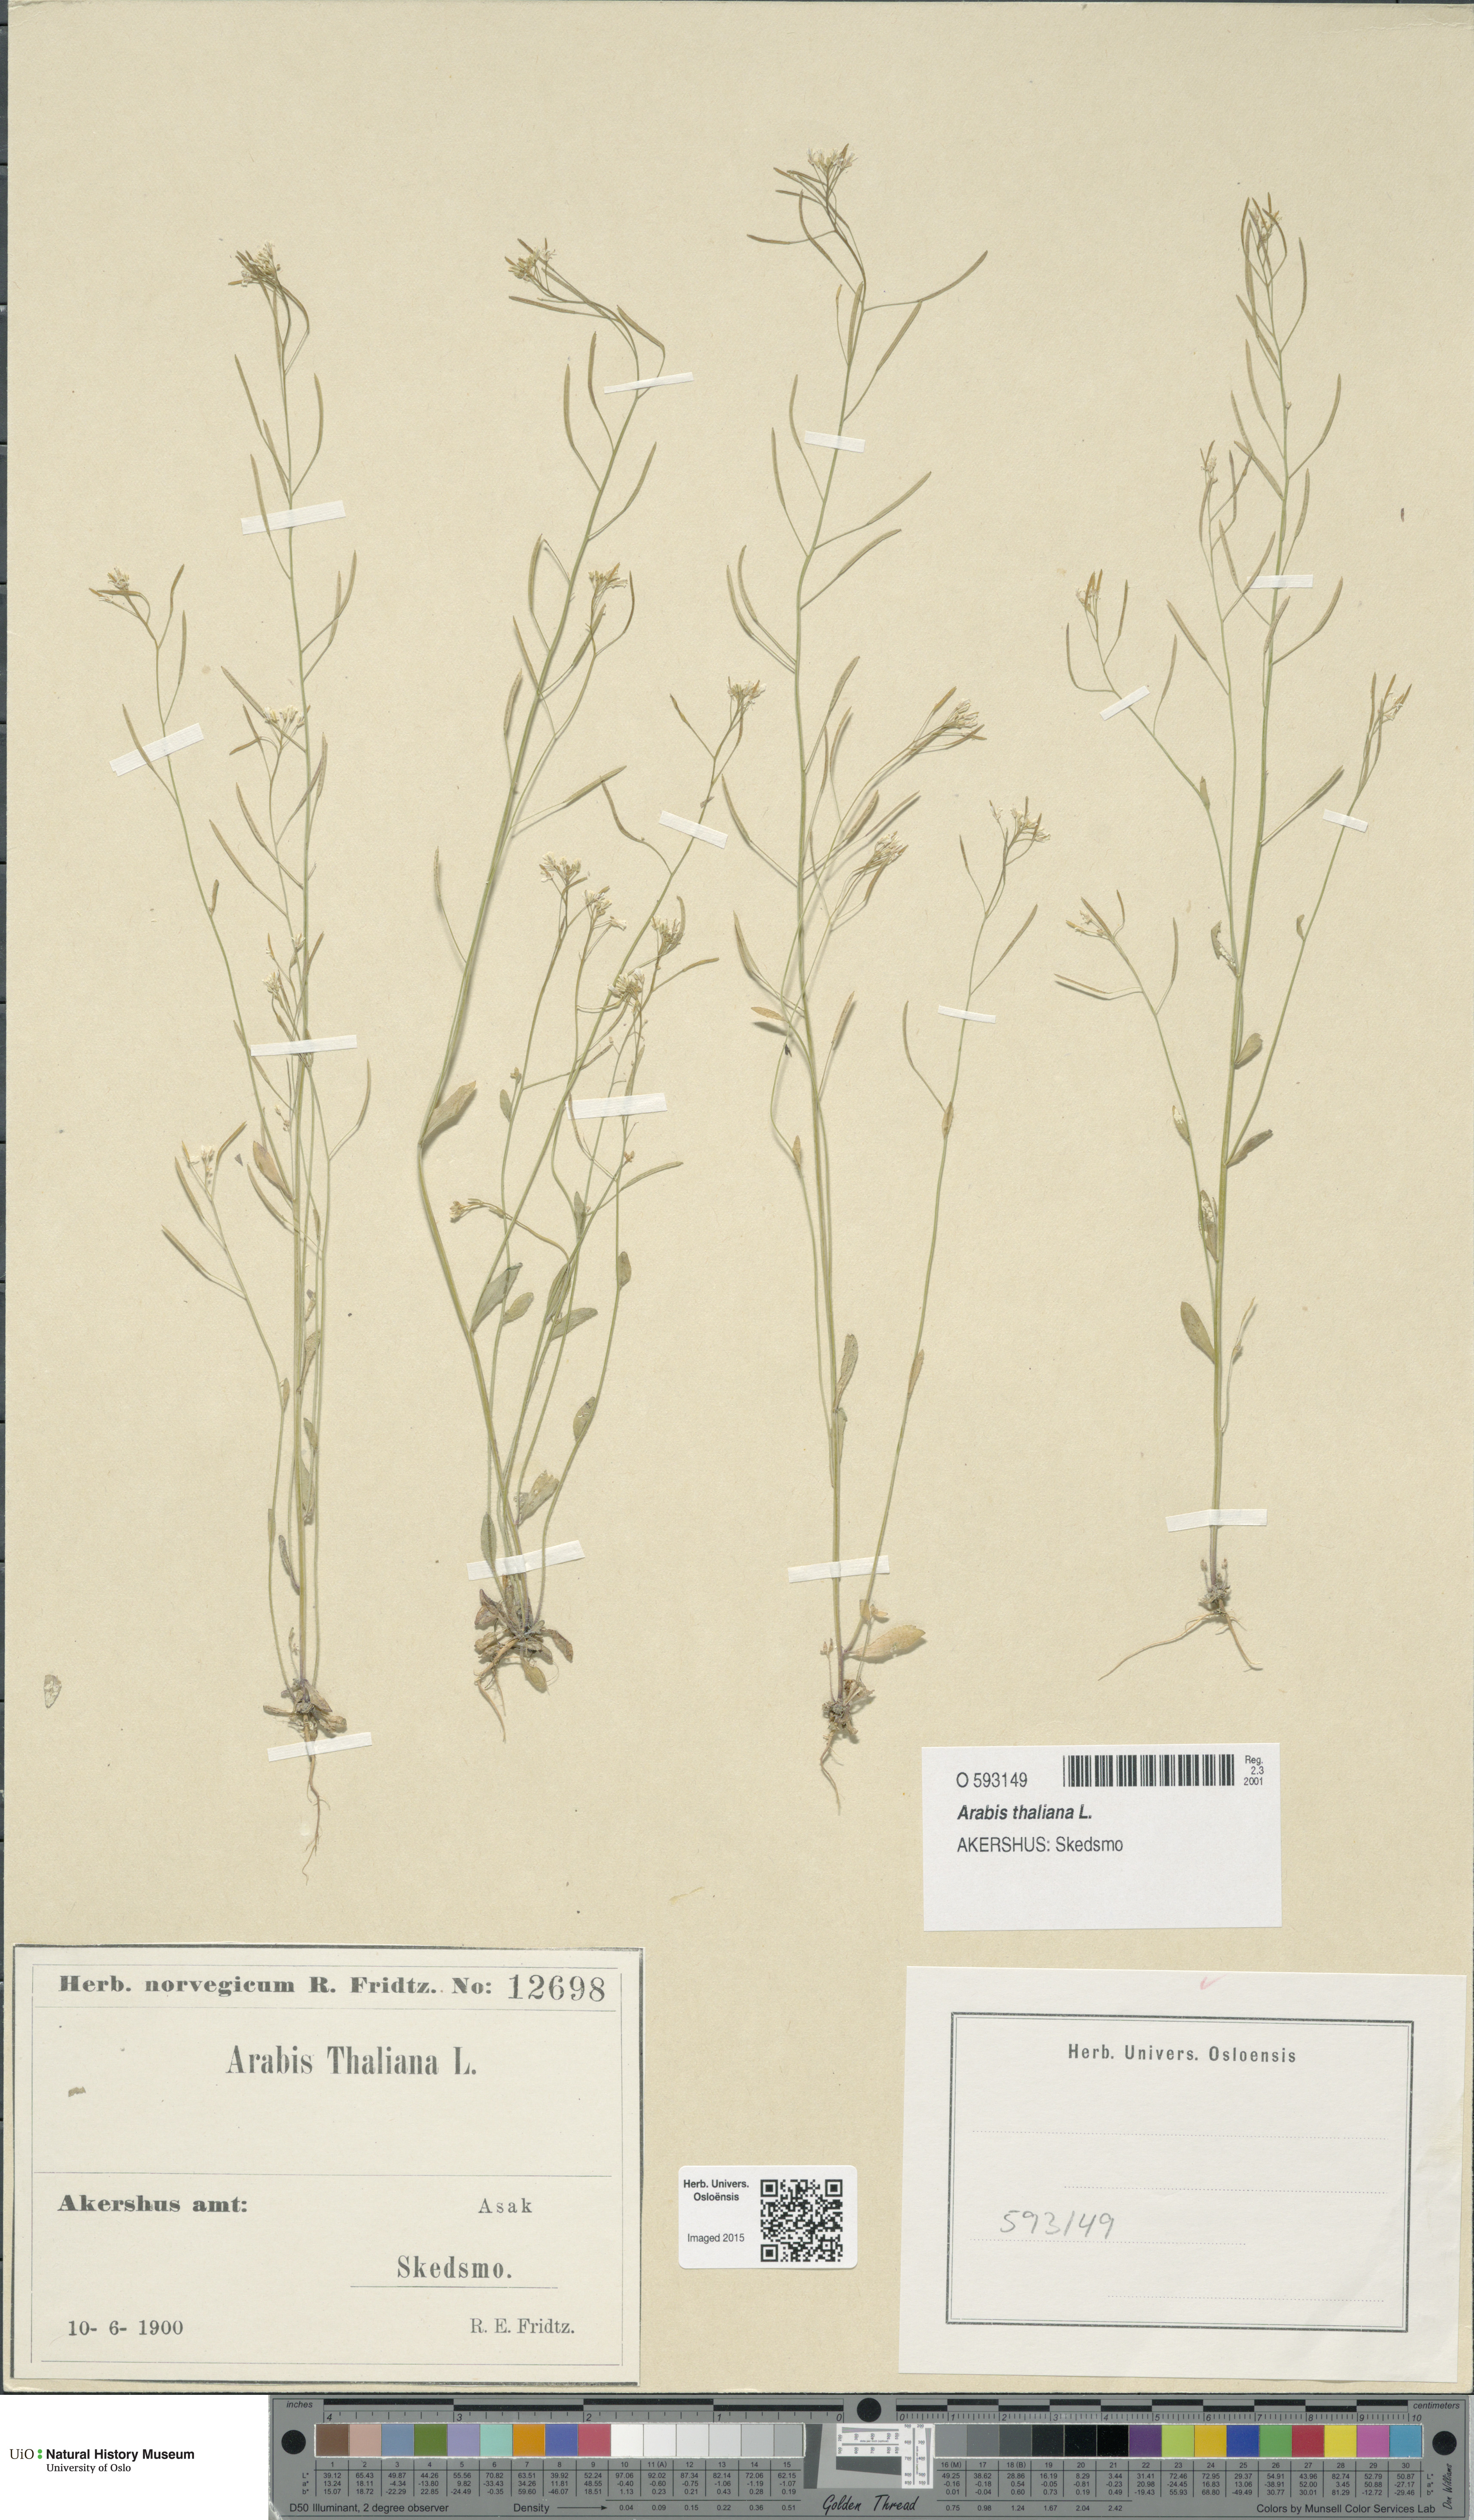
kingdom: Plantae
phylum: Tracheophyta
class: Magnoliopsida
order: Brassicales
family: Brassicaceae
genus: Arabidopsis
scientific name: Arabidopsis thaliana
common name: Thale cress
